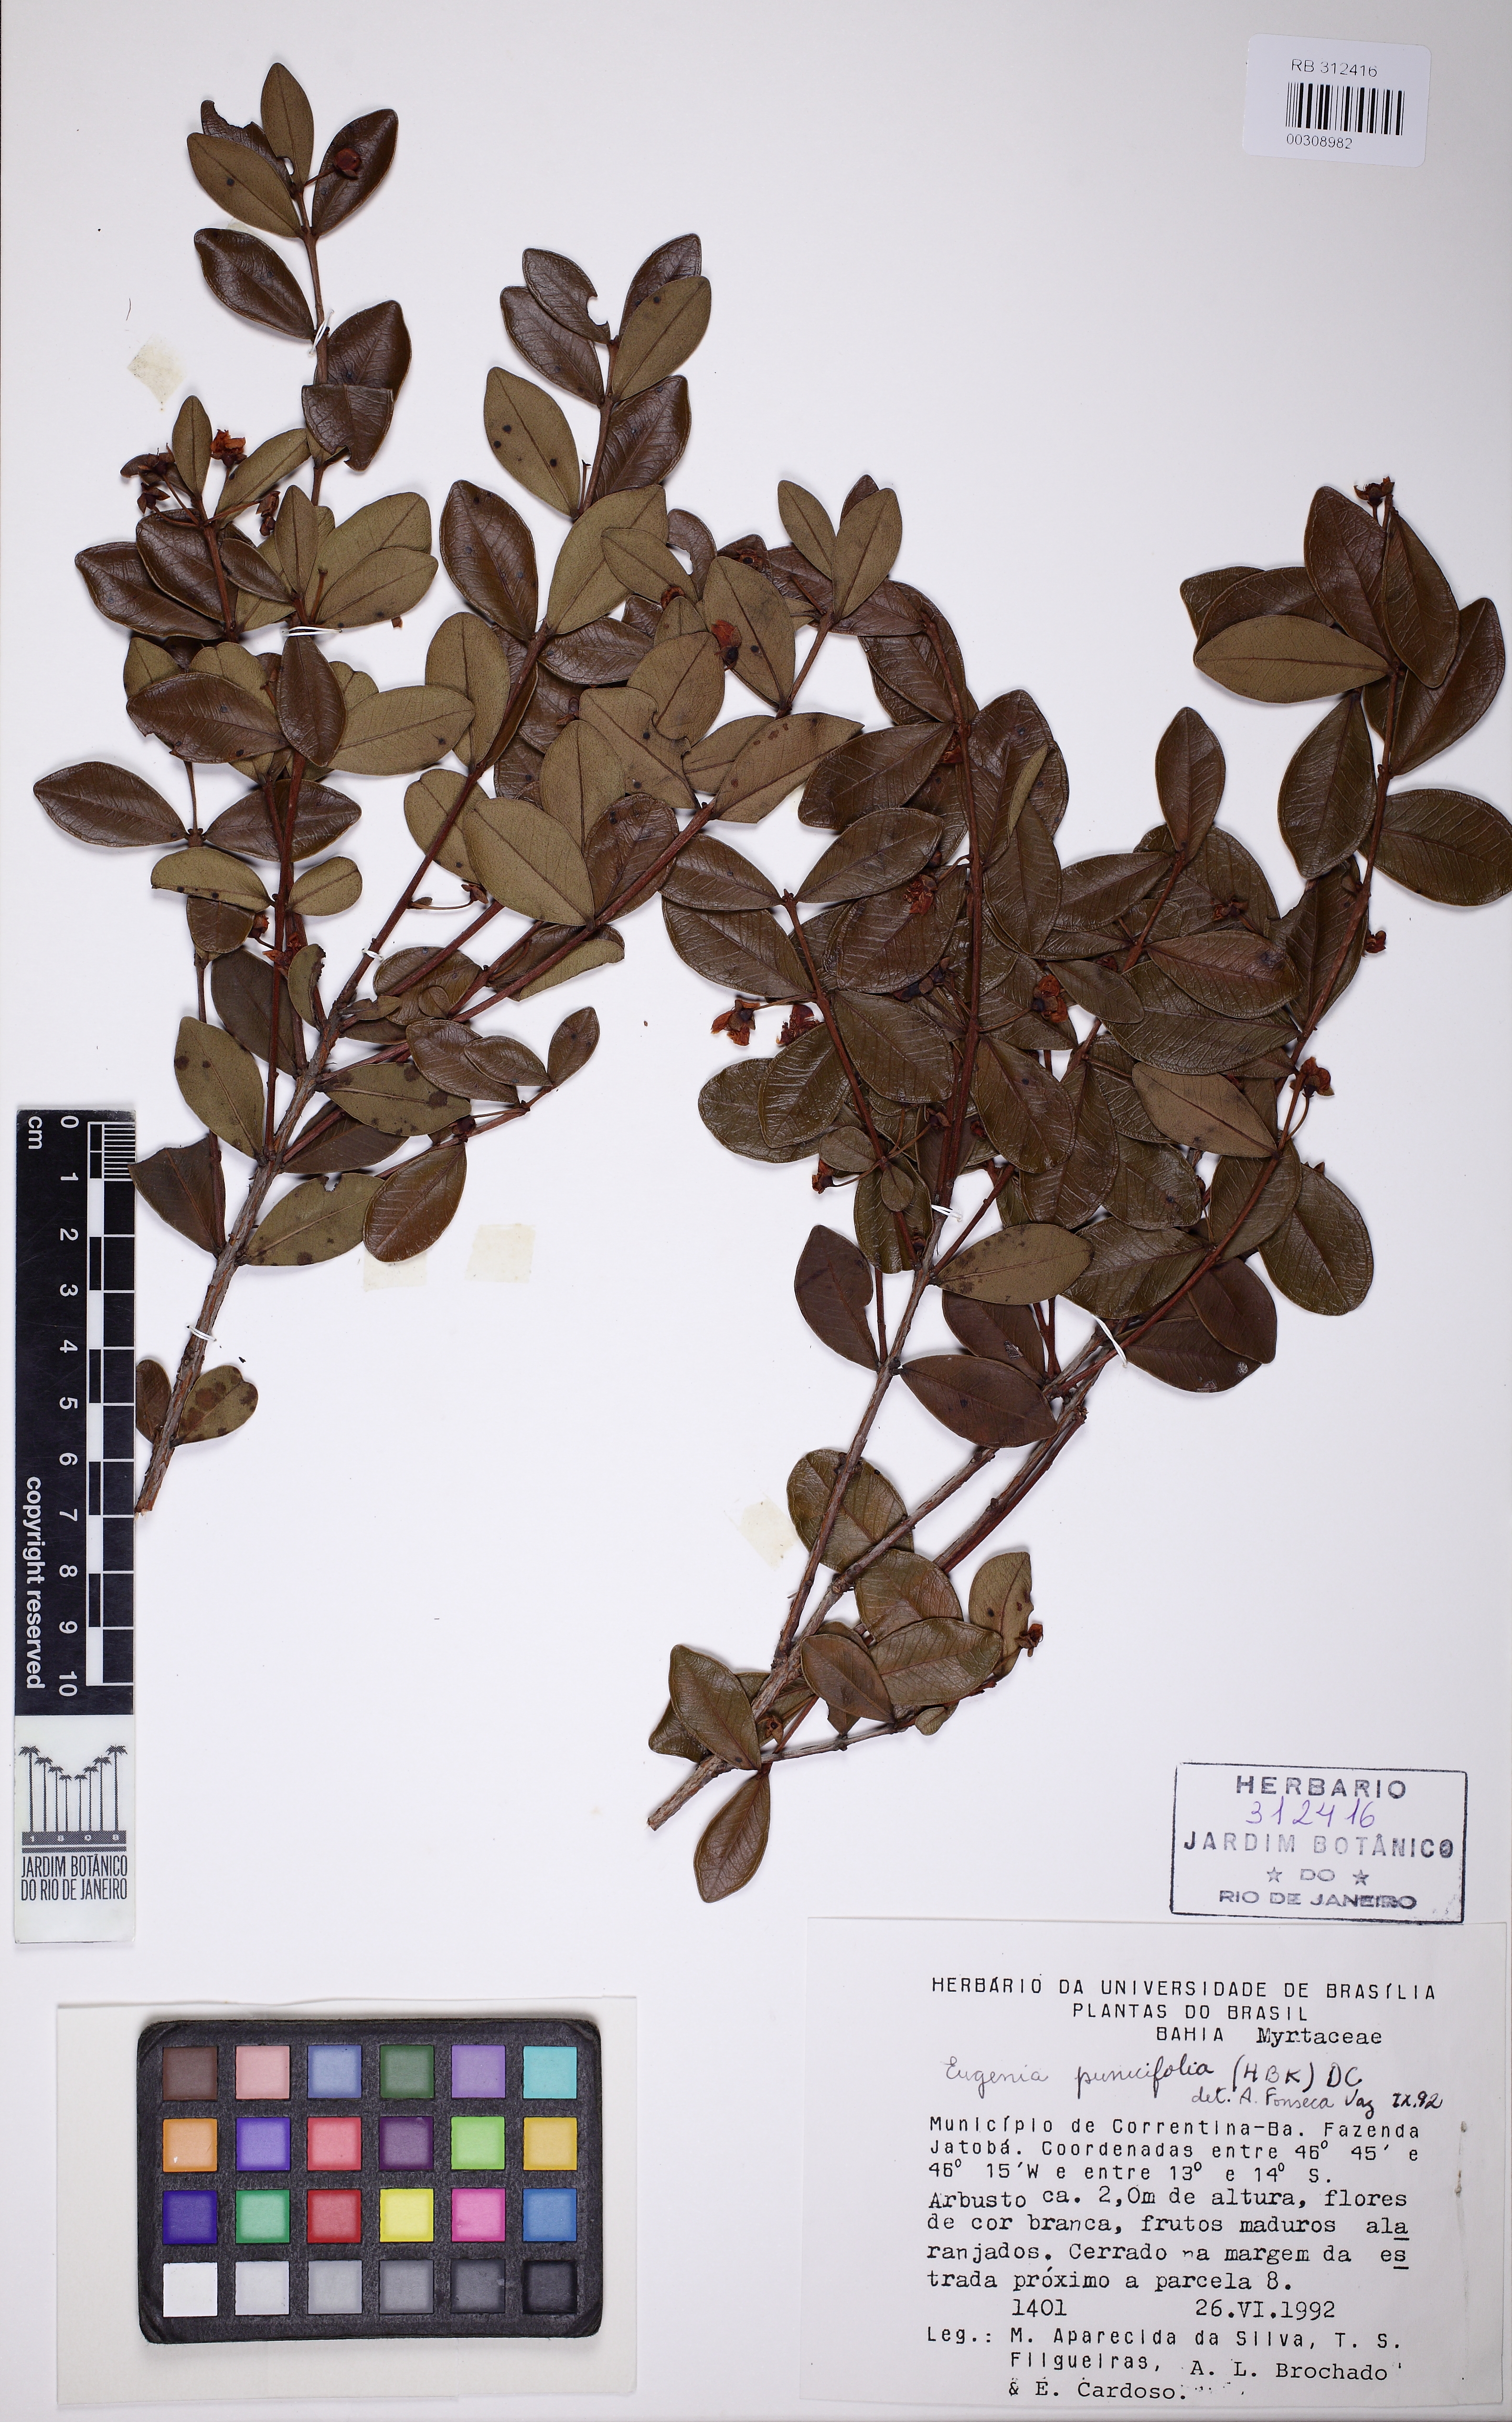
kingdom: Plantae
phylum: Tracheophyta
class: Magnoliopsida
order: Myrtales
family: Myrtaceae
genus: Eugenia
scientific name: Eugenia punicifolia
